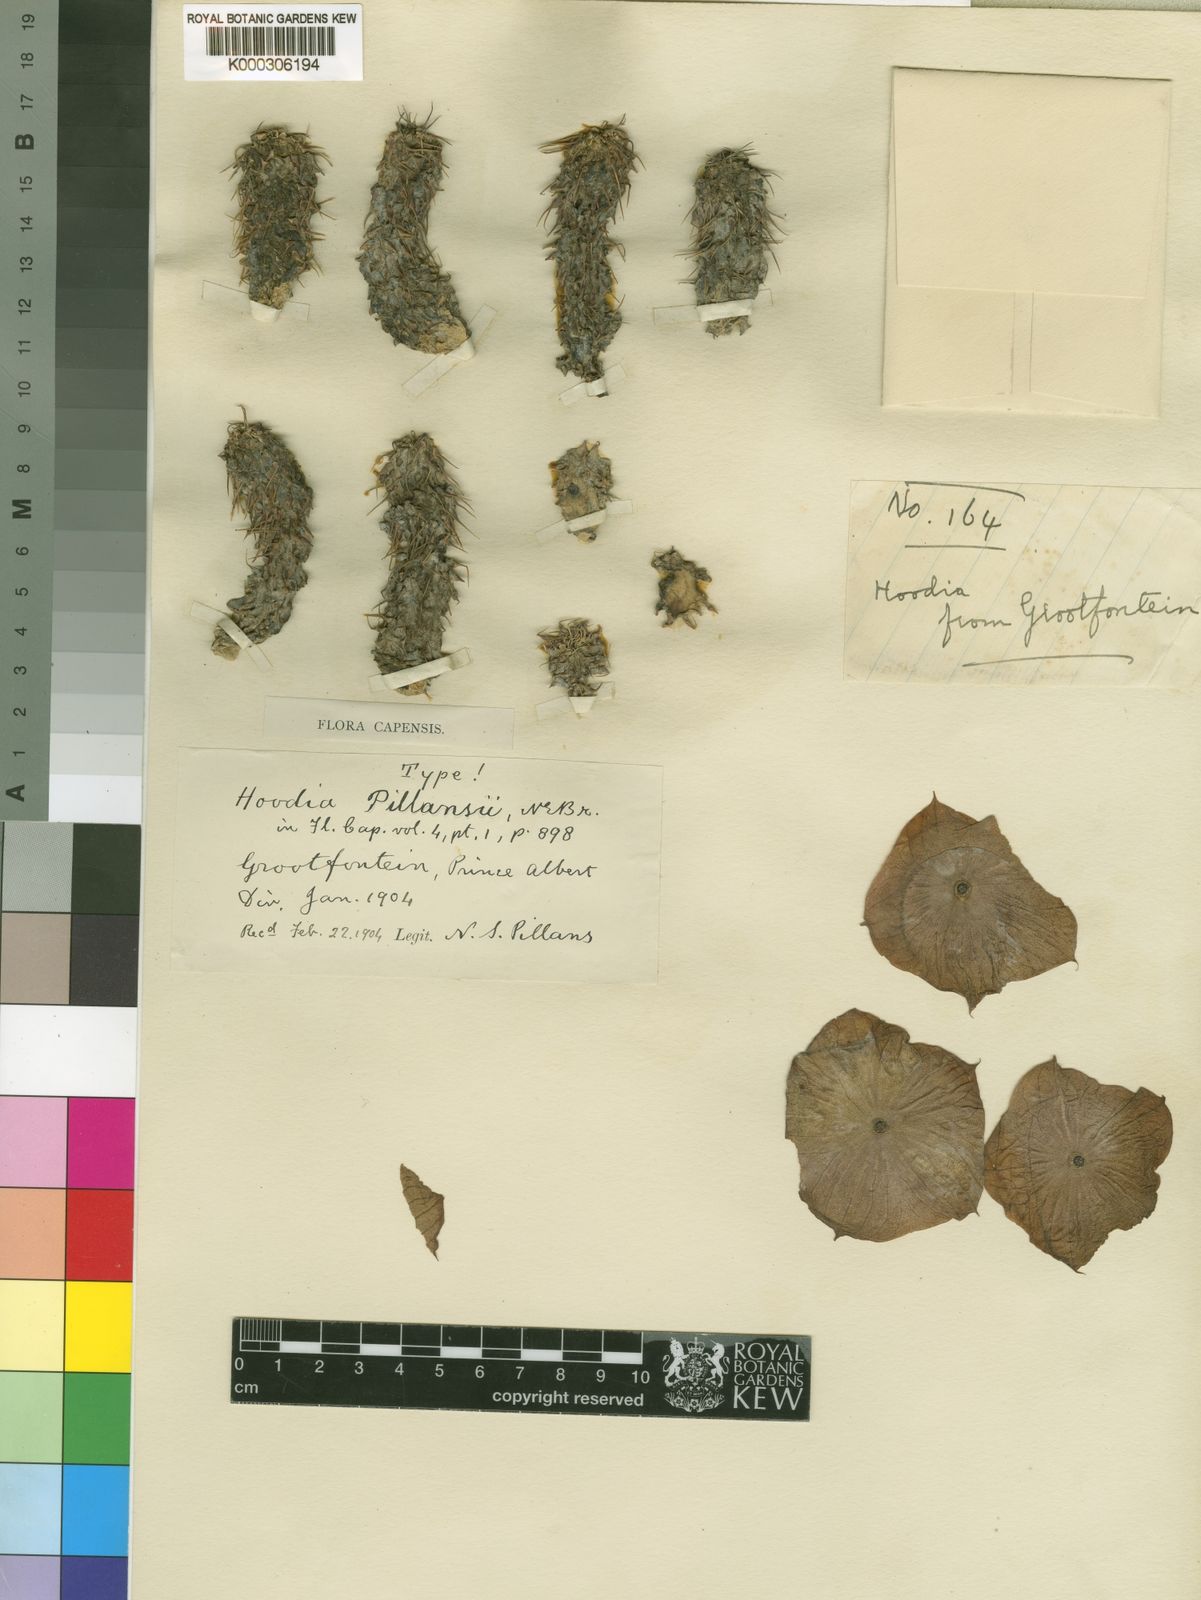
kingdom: Plantae
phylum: Tracheophyta
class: Magnoliopsida
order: Gentianales
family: Apocynaceae
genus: Ceropegia
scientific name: Ceropegia gordonii
